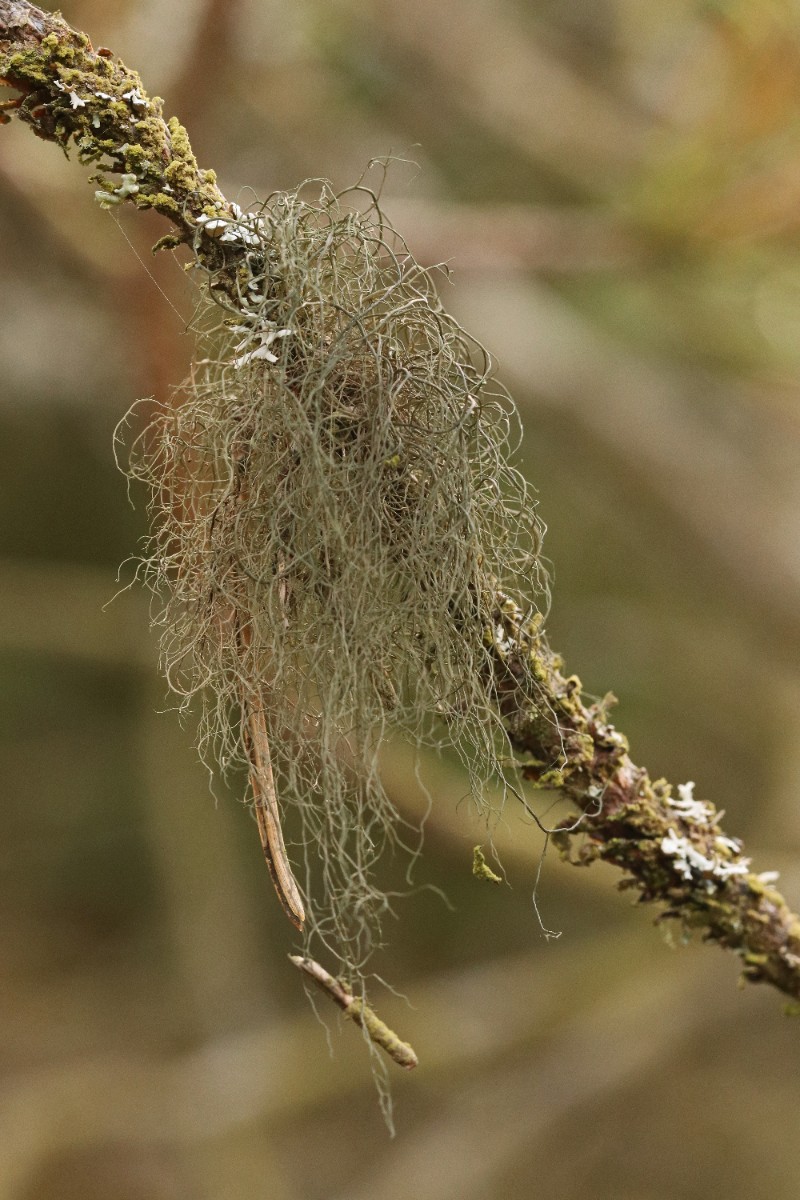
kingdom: Fungi
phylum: Ascomycota
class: Lecanoromycetes
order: Lecanorales
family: Parmeliaceae
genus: Bryoria
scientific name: Bryoria capillaris
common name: grå mankelav
